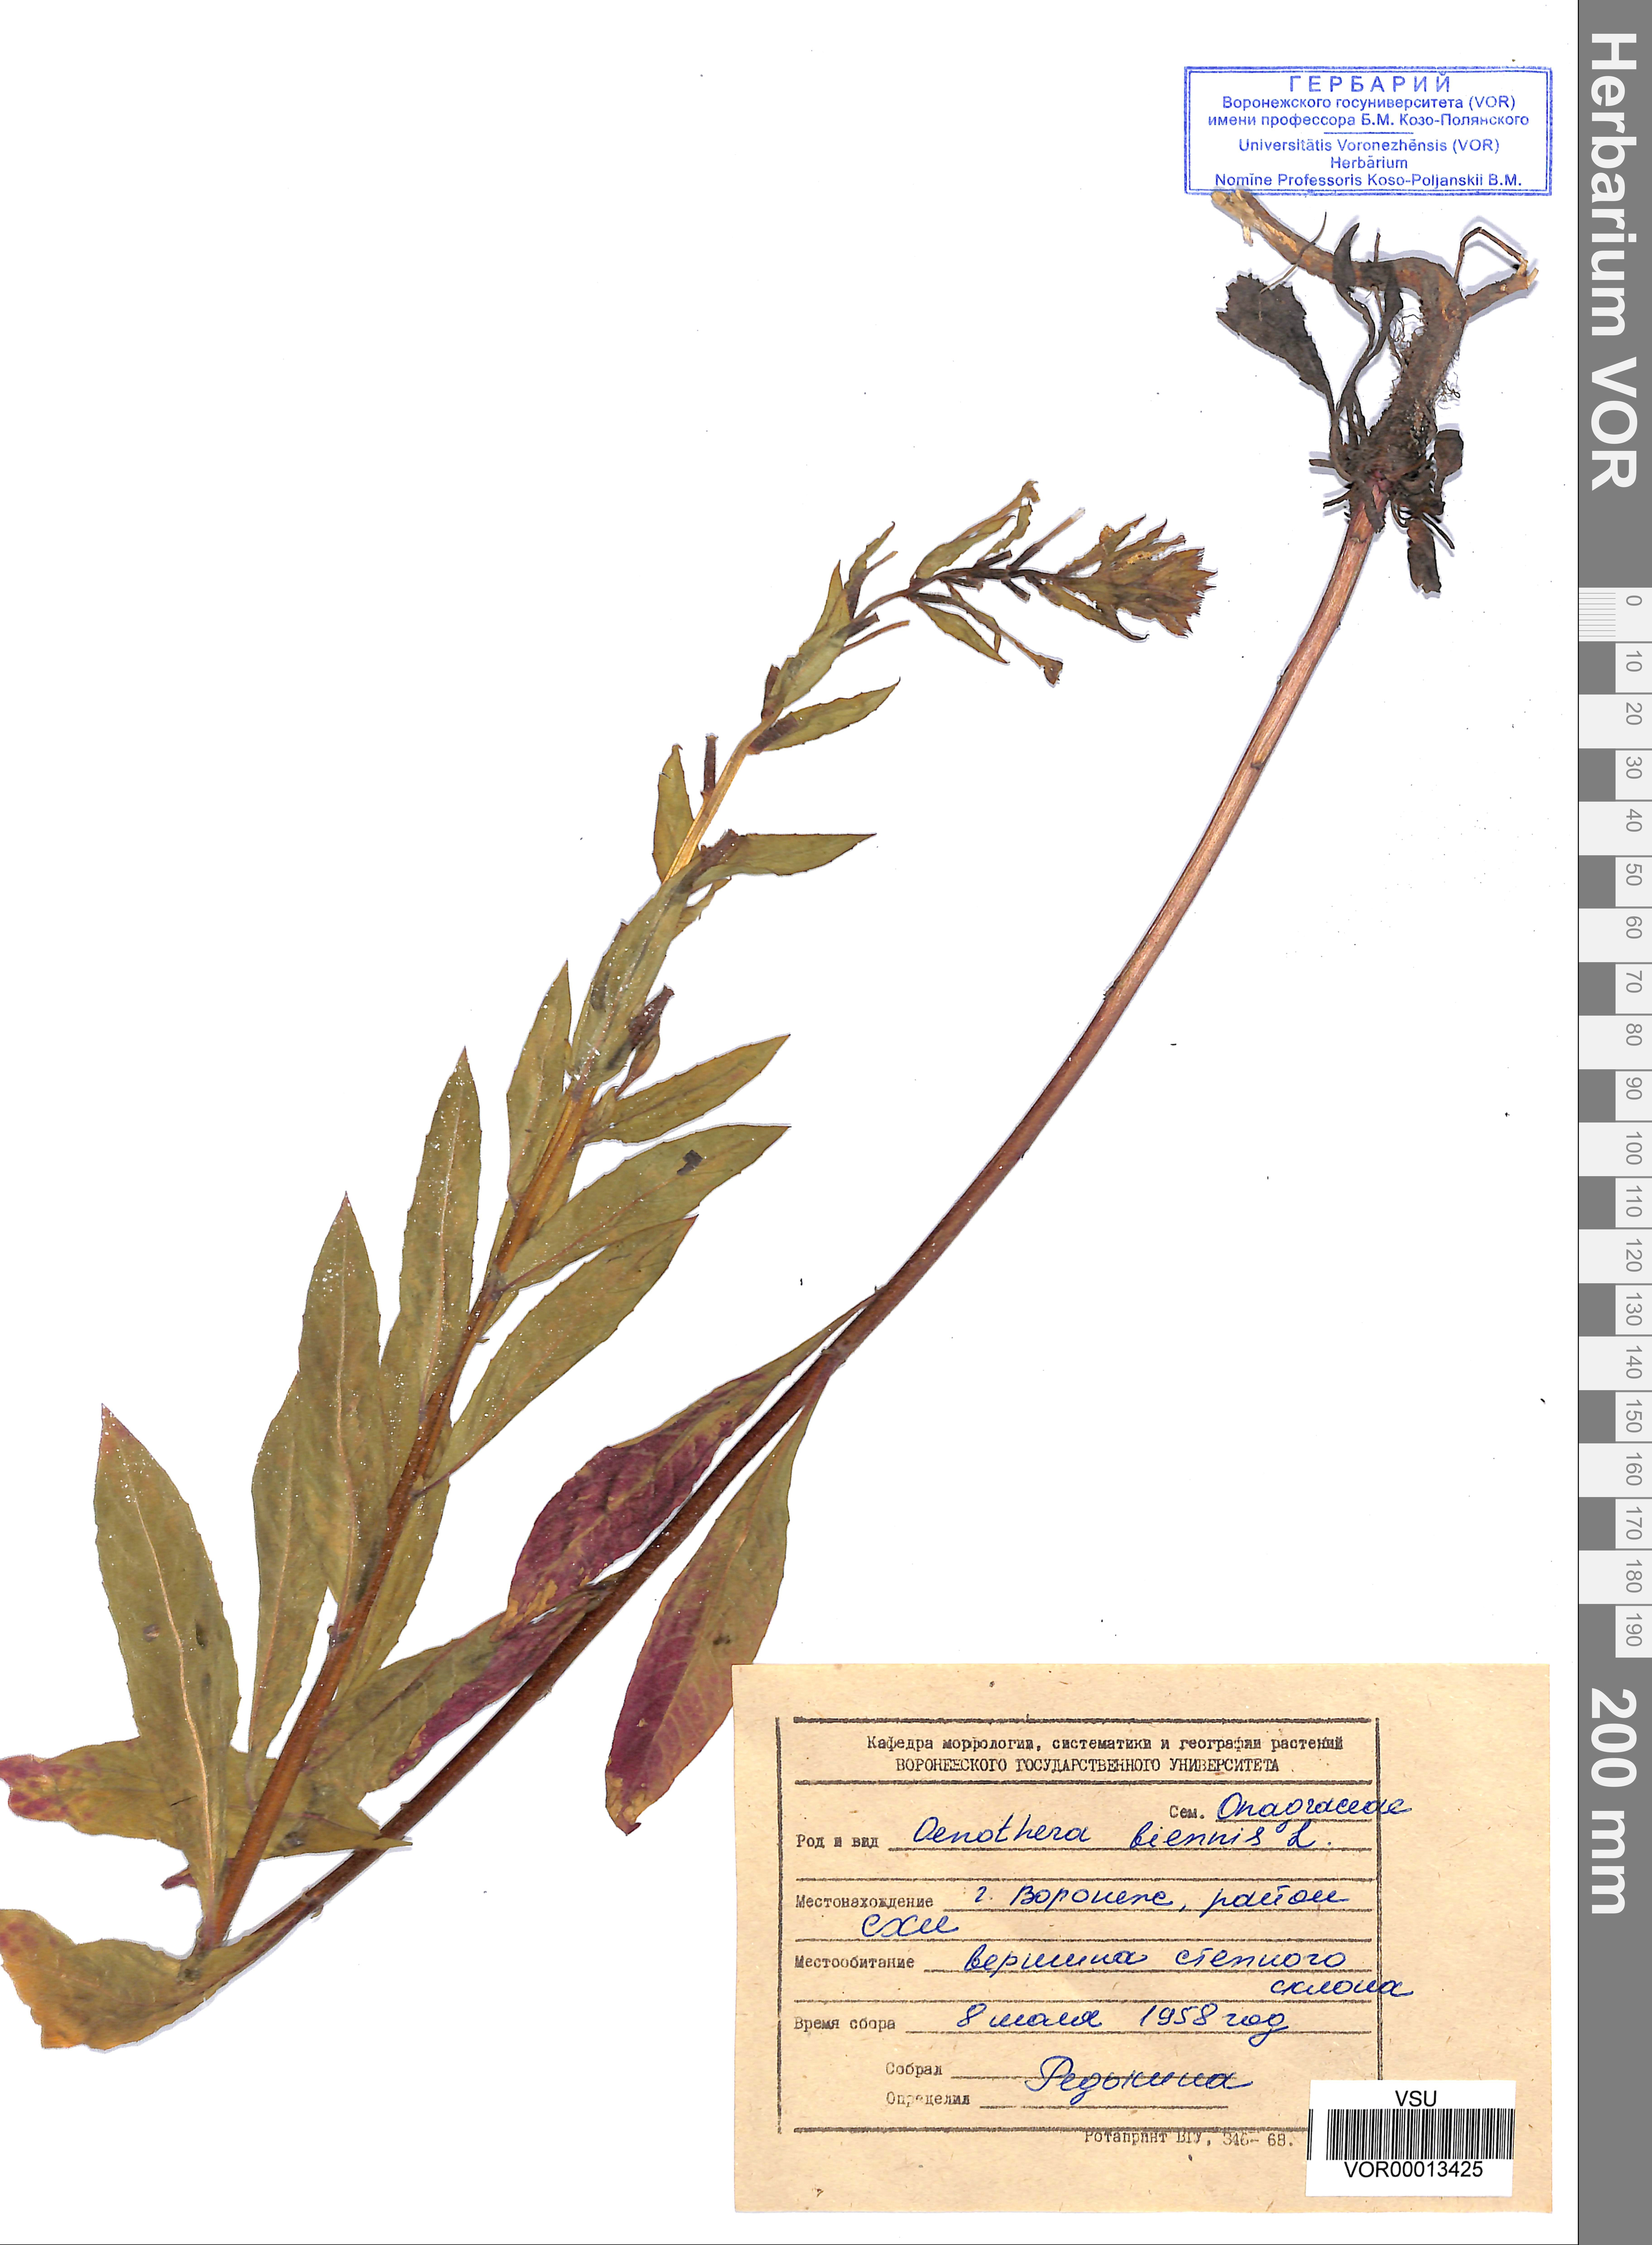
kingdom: Plantae
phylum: Tracheophyta
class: Magnoliopsida
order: Myrtales
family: Onagraceae
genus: Oenothera
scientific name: Oenothera biennis
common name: Common evening-primrose
